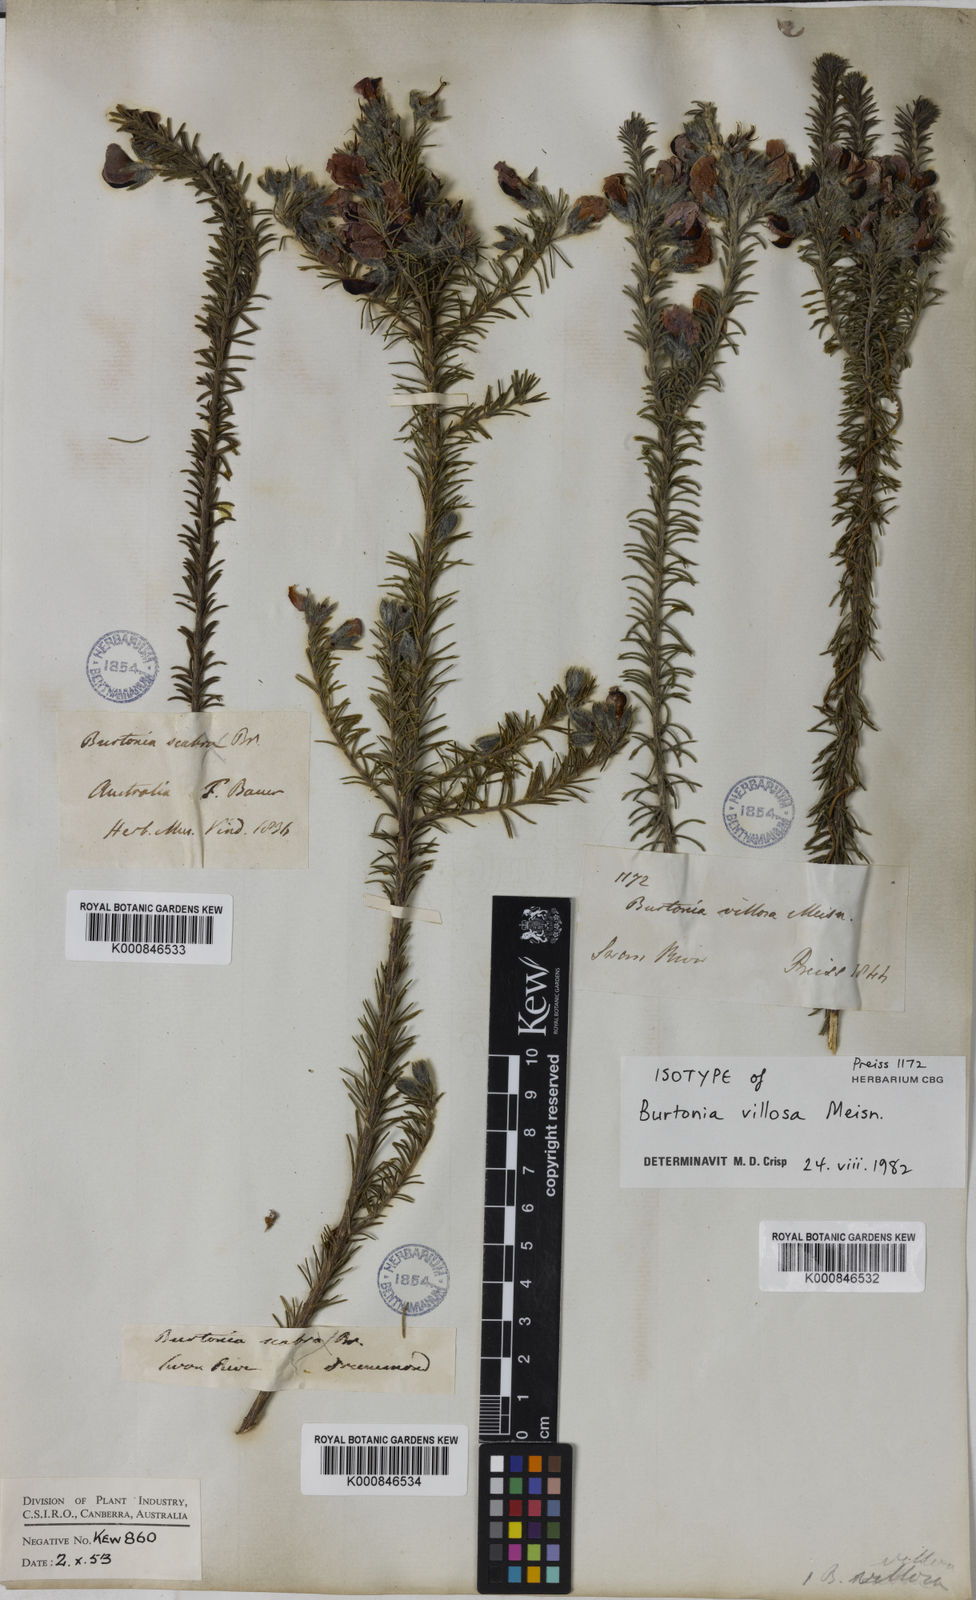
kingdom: Plantae
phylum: Tracheophyta
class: Magnoliopsida
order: Fabales
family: Fabaceae
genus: Gompholobium
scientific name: Gompholobium villosum
